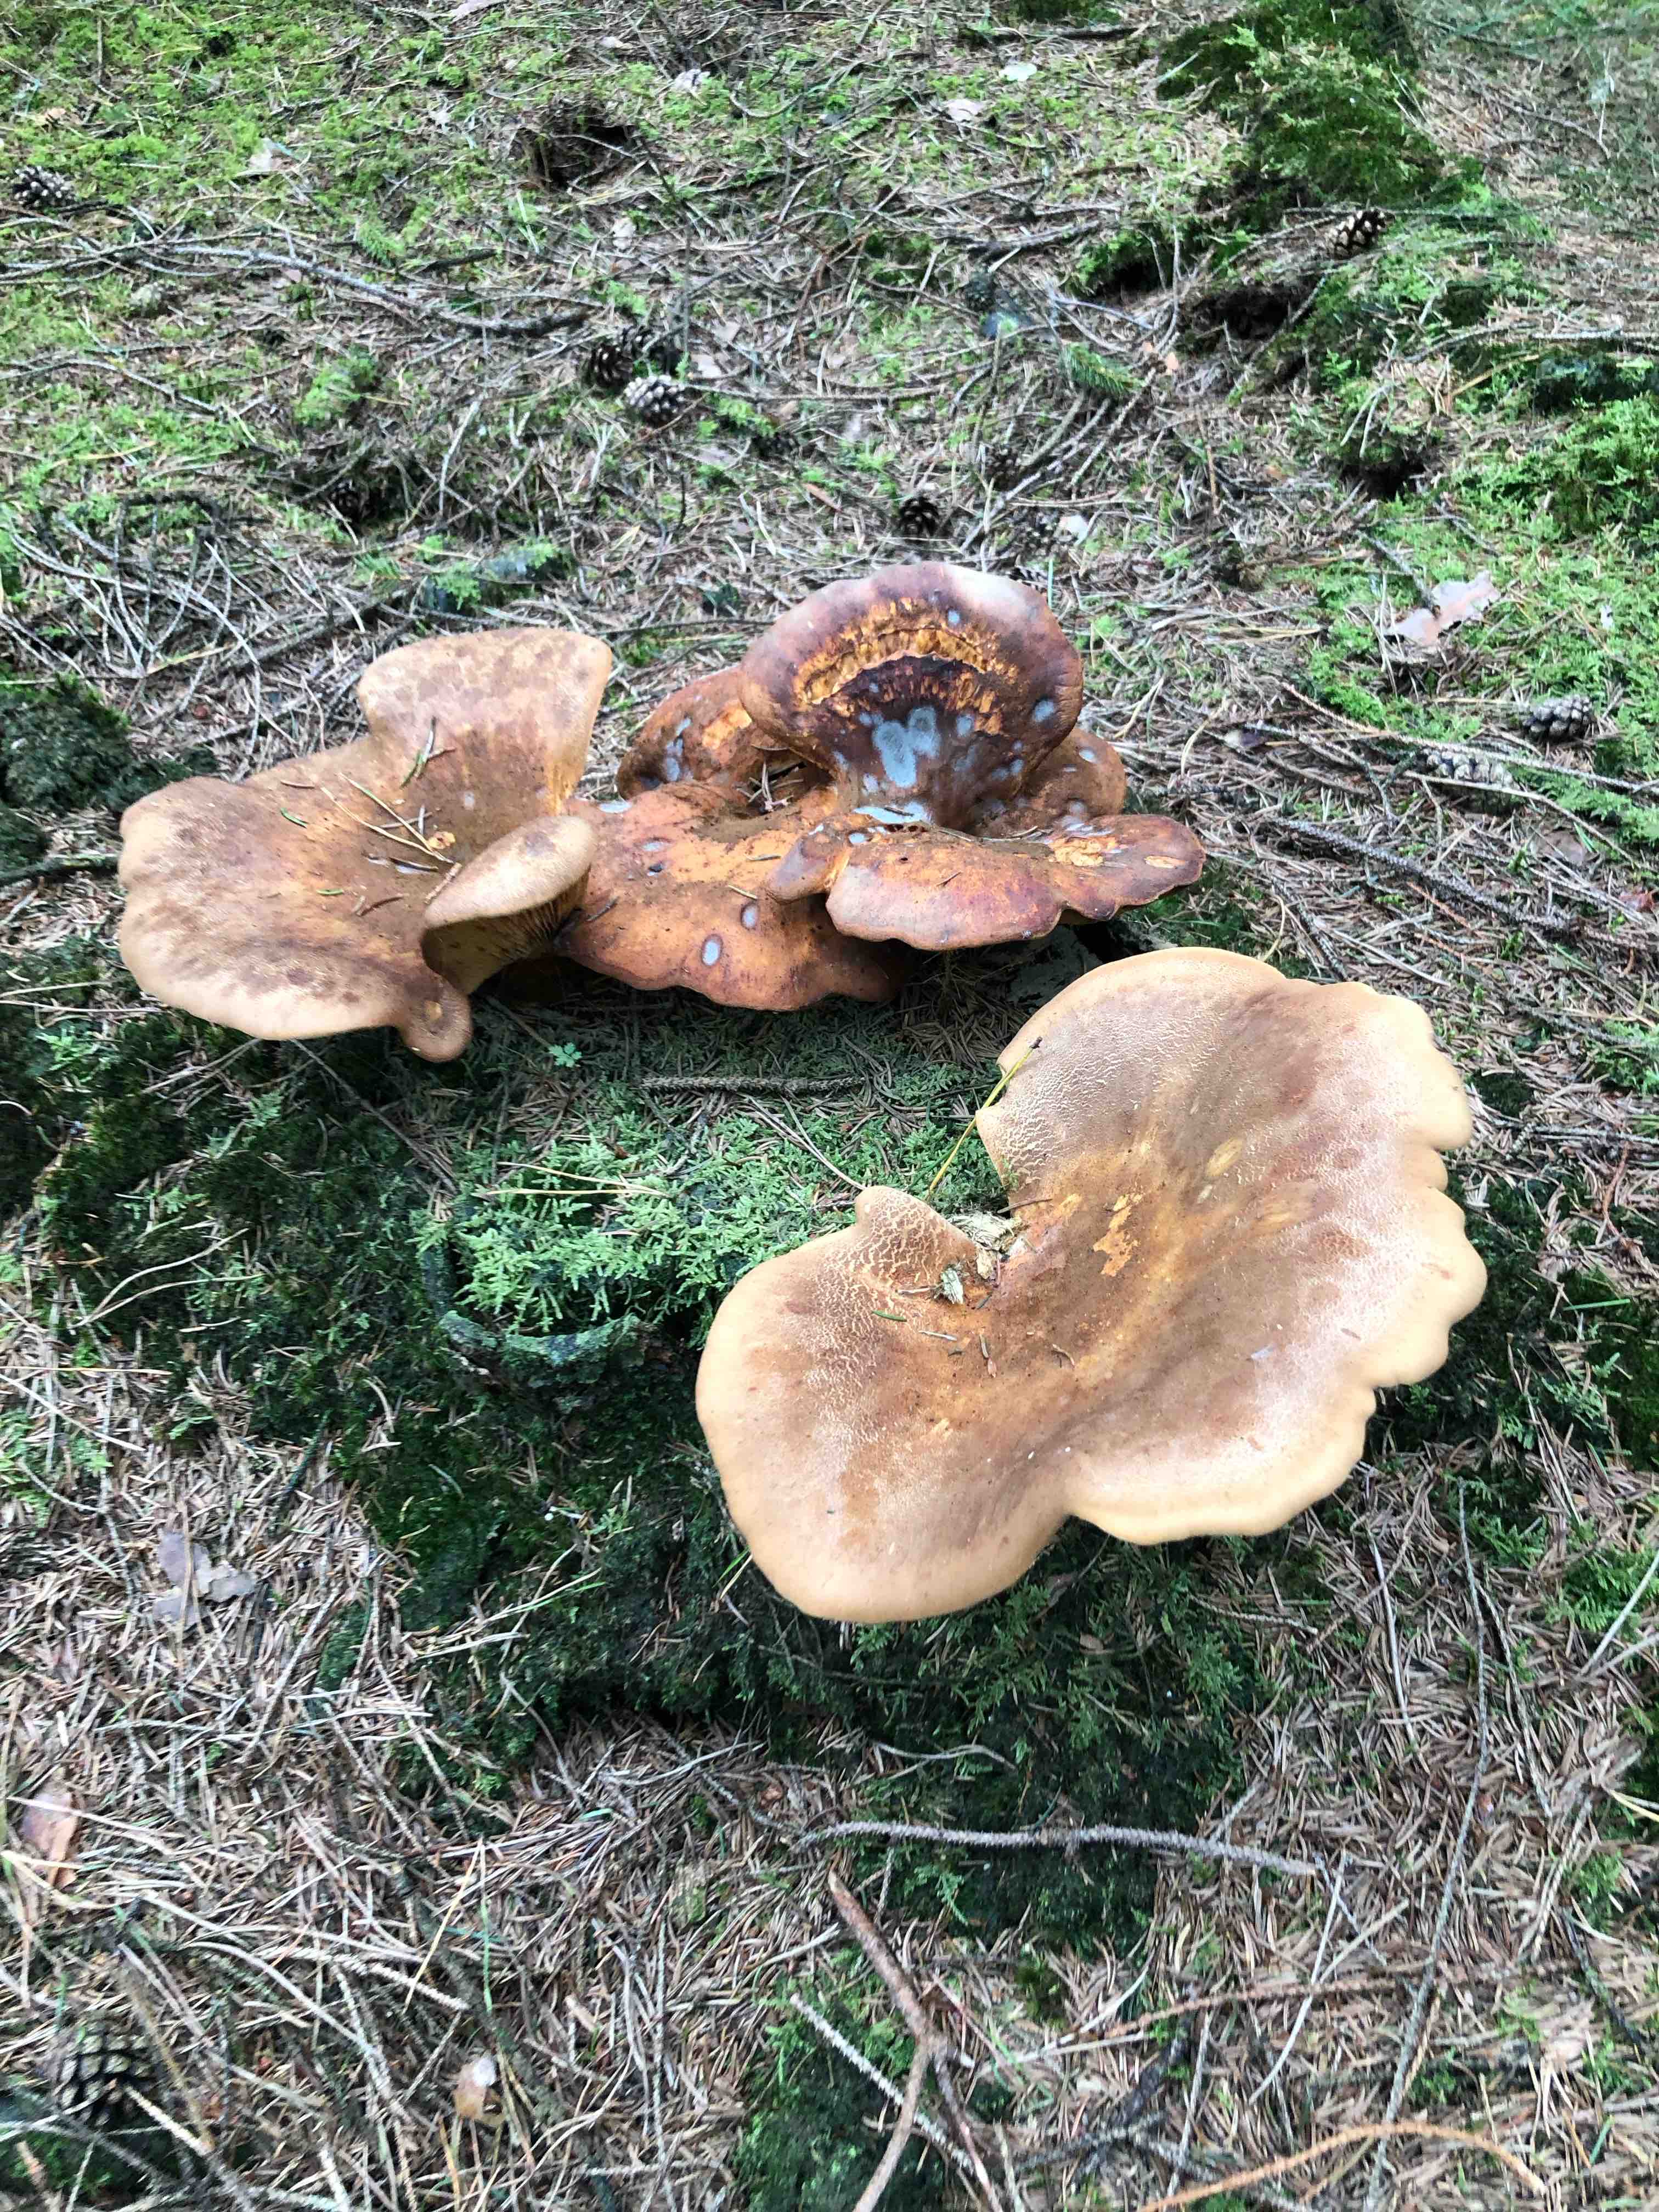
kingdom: Fungi
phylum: Basidiomycota
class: Agaricomycetes
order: Boletales
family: Tapinellaceae
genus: Tapinella
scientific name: Tapinella atrotomentosa
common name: sortfiltet viftesvamp
